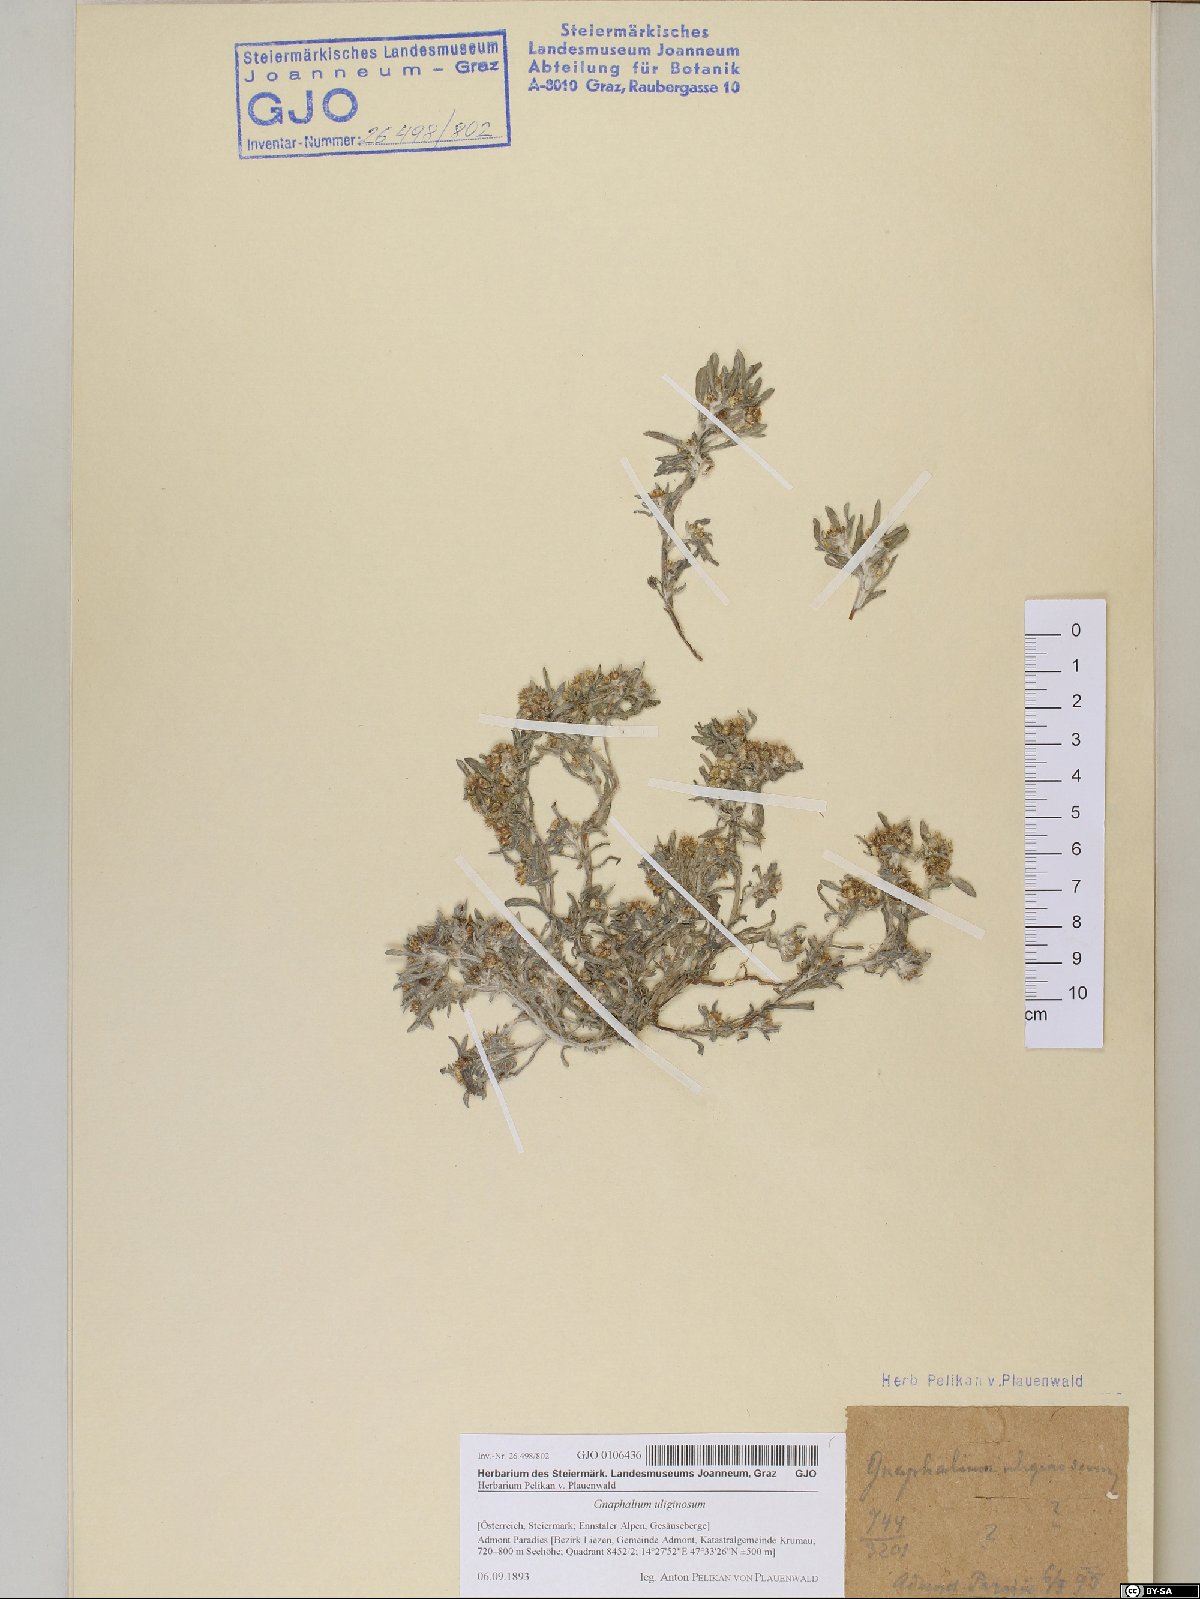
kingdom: Plantae
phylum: Tracheophyta
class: Magnoliopsida
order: Asterales
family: Asteraceae
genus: Gnaphalium
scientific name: Gnaphalium uliginosum
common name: Marsh cudweed
